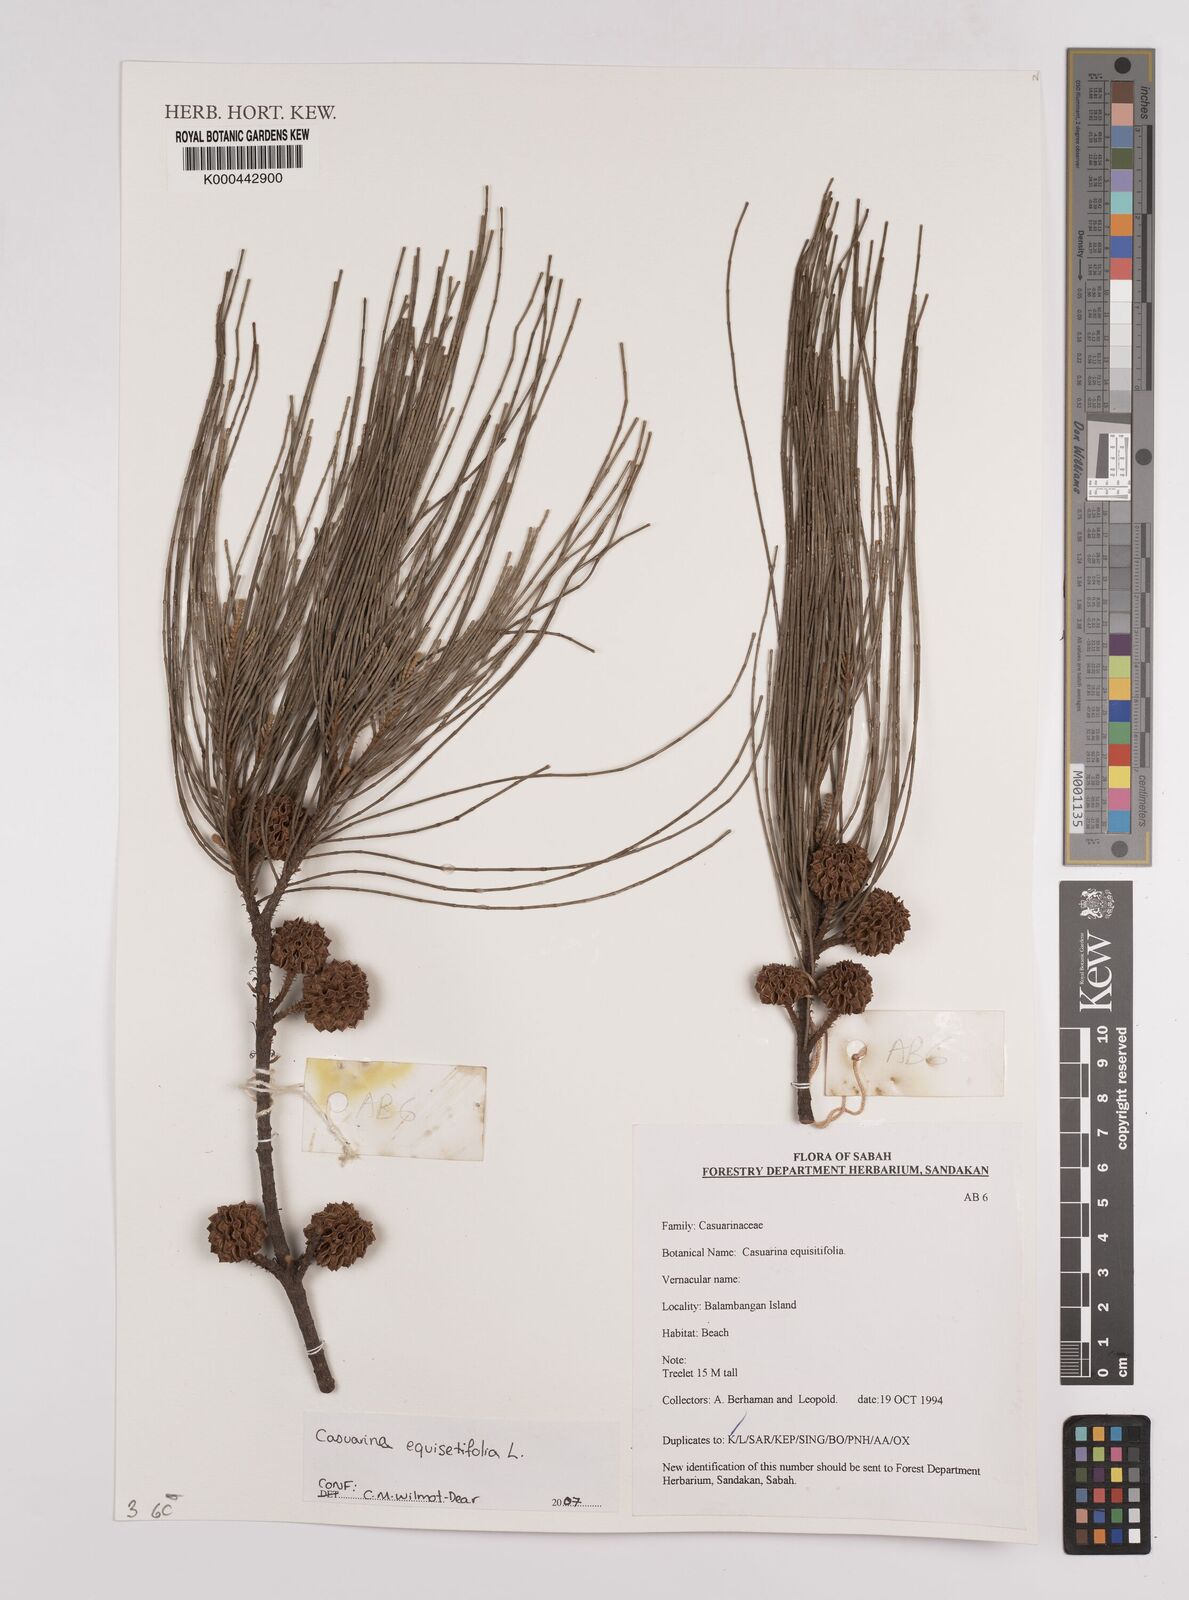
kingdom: Plantae
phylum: Tracheophyta
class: Magnoliopsida
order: Fagales
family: Casuarinaceae
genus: Casuarina
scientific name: Casuarina equisetifolia
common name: Beach sheoak
